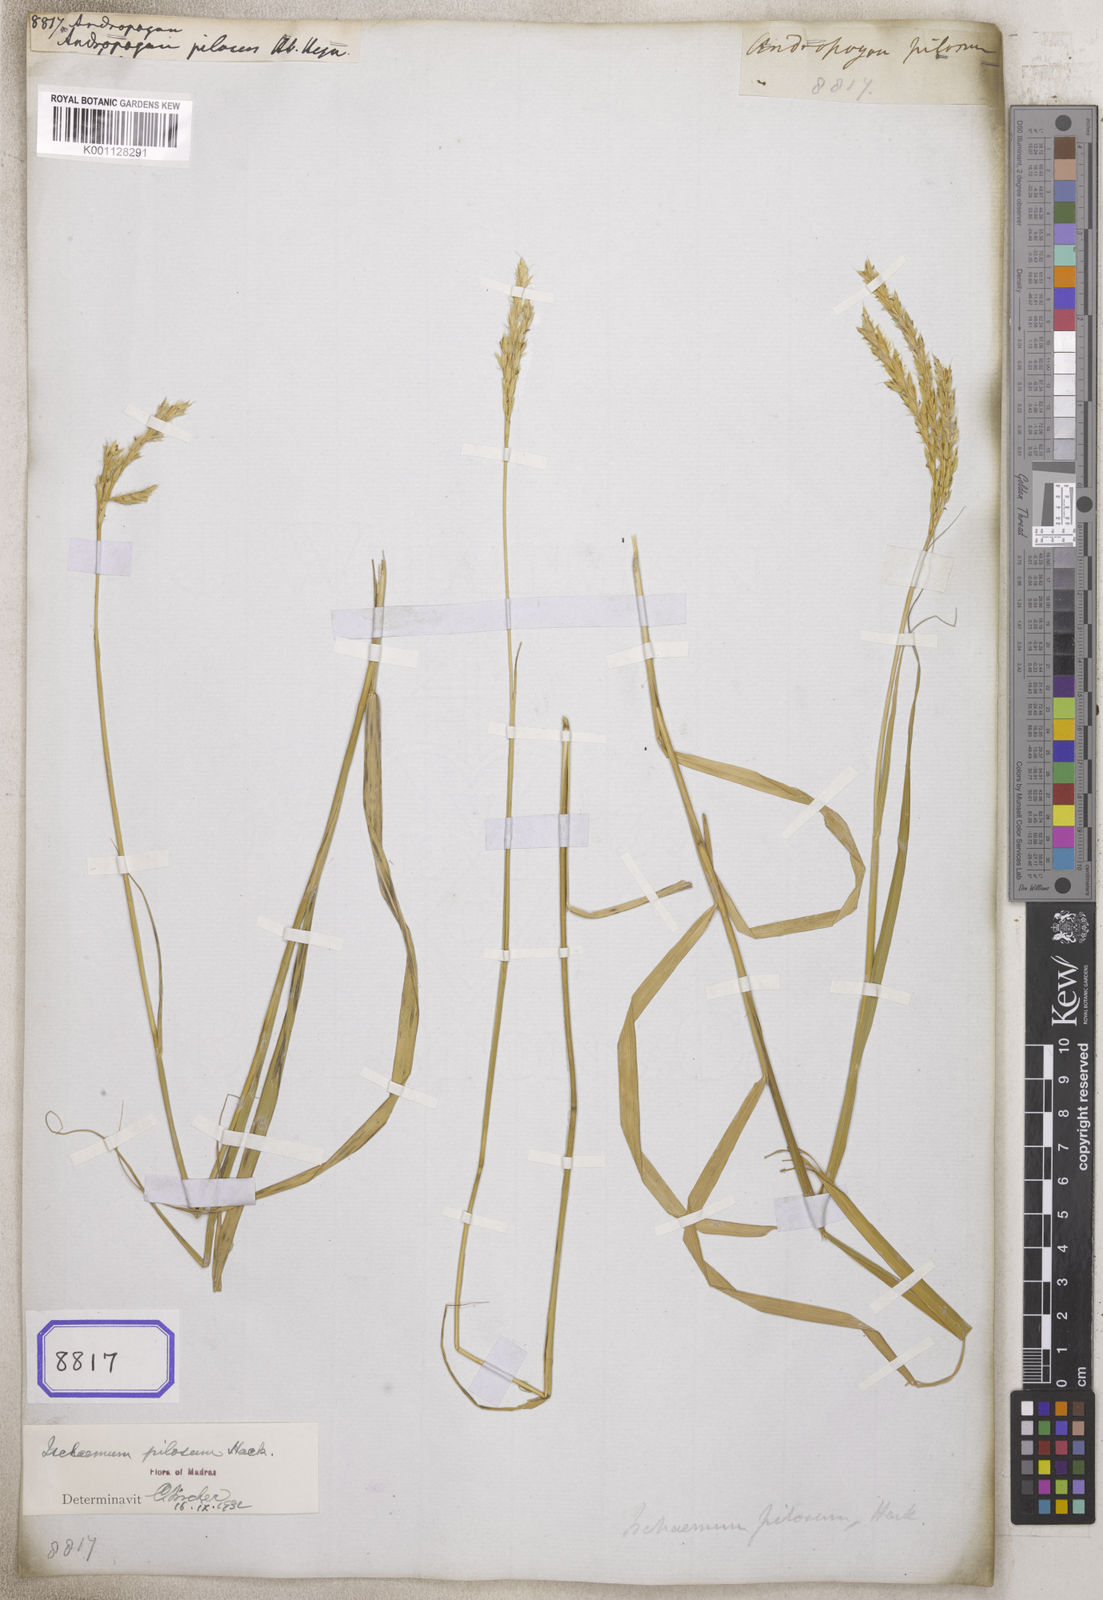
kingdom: Plantae
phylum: Tracheophyta
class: Liliopsida
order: Poales
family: Poaceae
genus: Andropogon
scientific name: Andropogon
